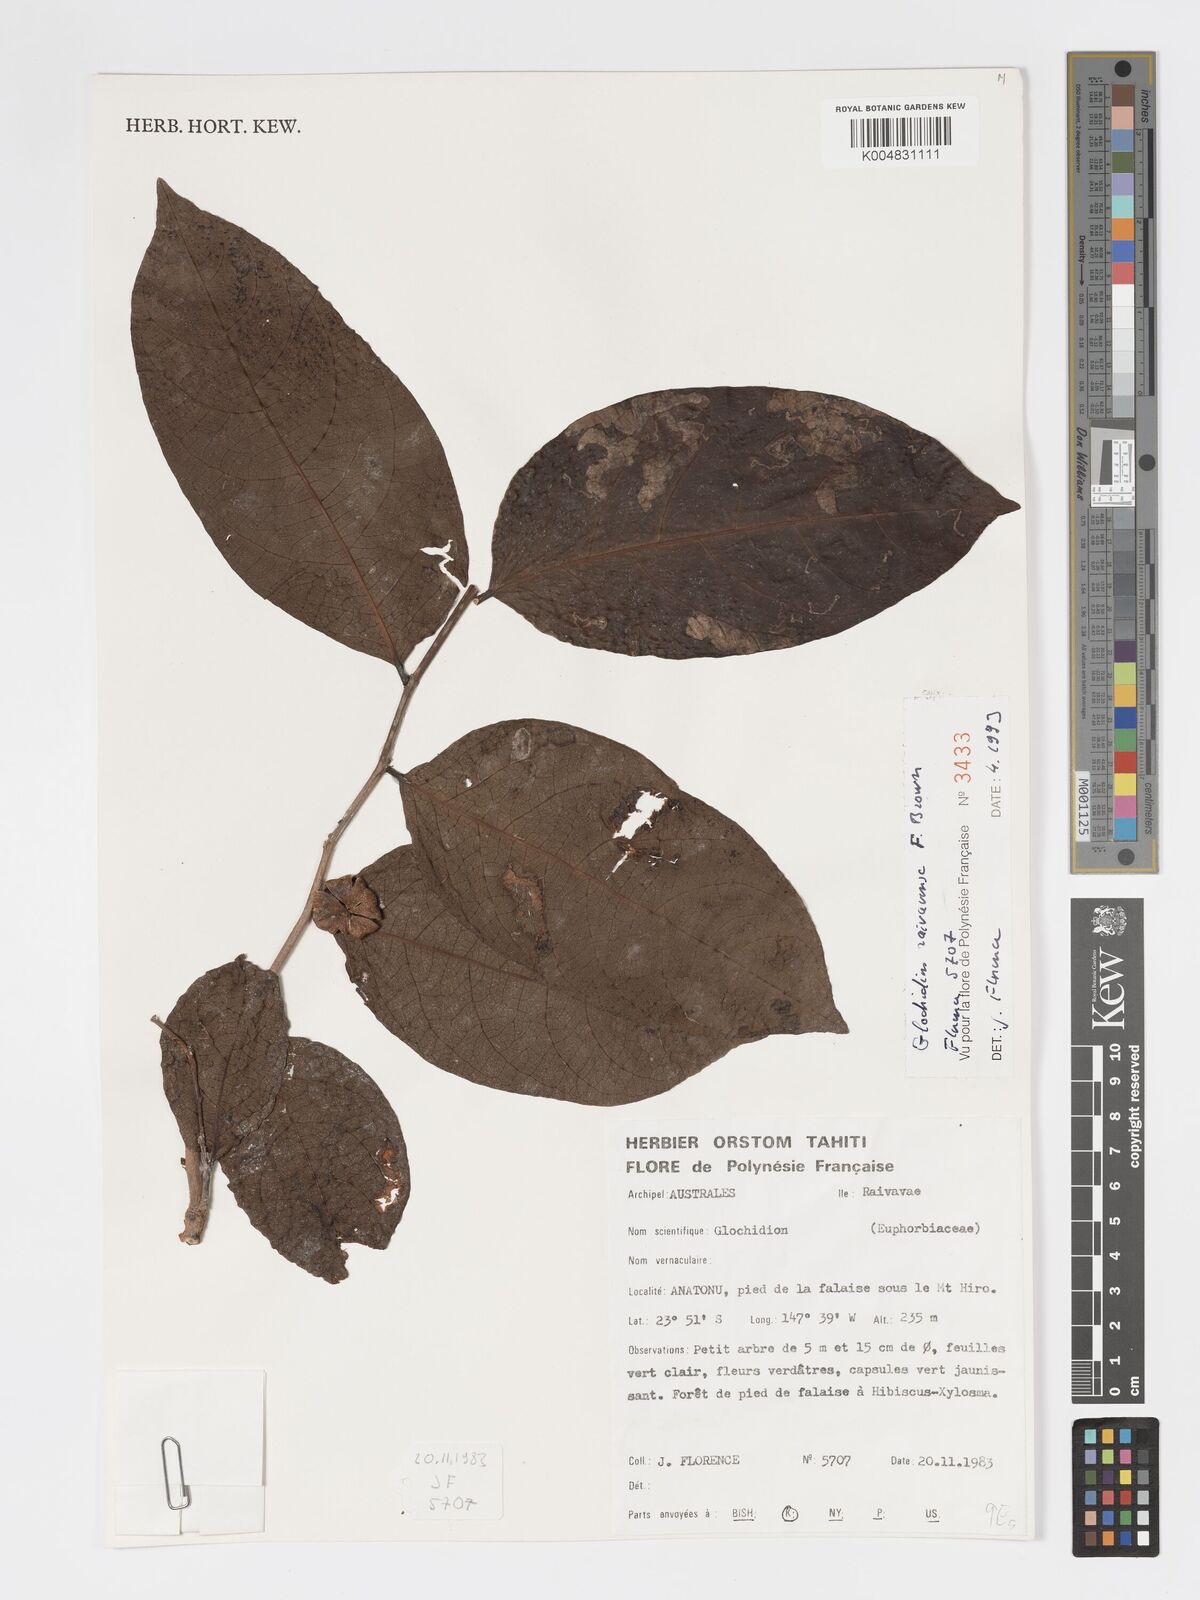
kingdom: Plantae
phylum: Tracheophyta
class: Magnoliopsida
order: Malpighiales
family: Phyllanthaceae
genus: Glochidion
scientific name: Glochidion raivavense
